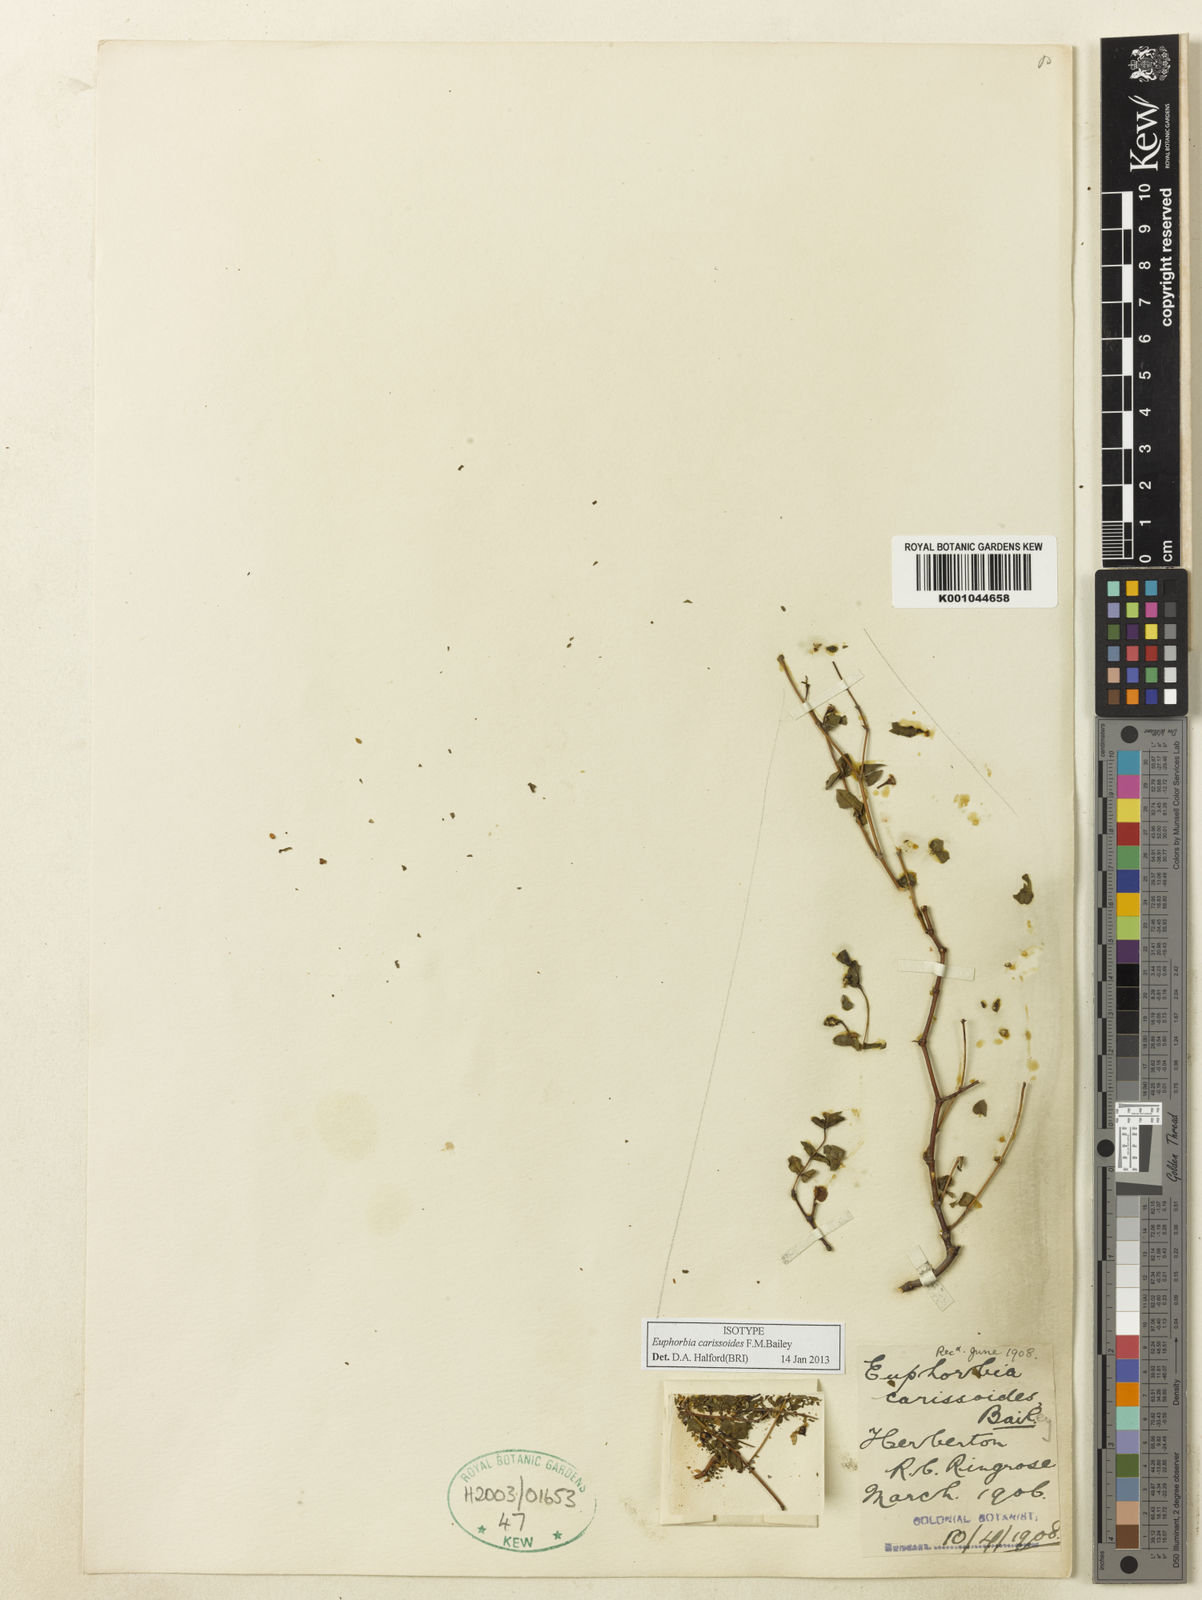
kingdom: Plantae
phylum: Tracheophyta
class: Magnoliopsida
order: Malpighiales
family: Euphorbiaceae
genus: Euphorbia
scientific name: Euphorbia carissoides
